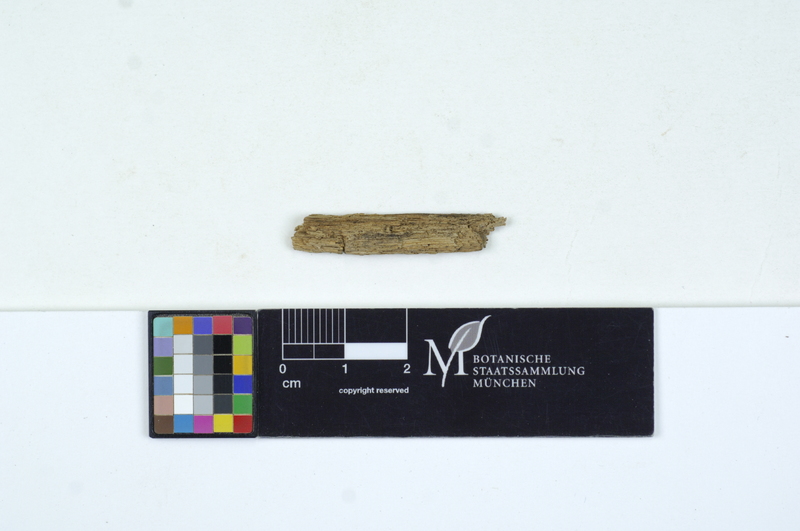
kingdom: Fungi
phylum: Basidiomycota
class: Agaricomycetes
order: Cantharellales
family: Oliveoniaceae
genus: Oliveonia
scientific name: Oliveonia fibrillosa
